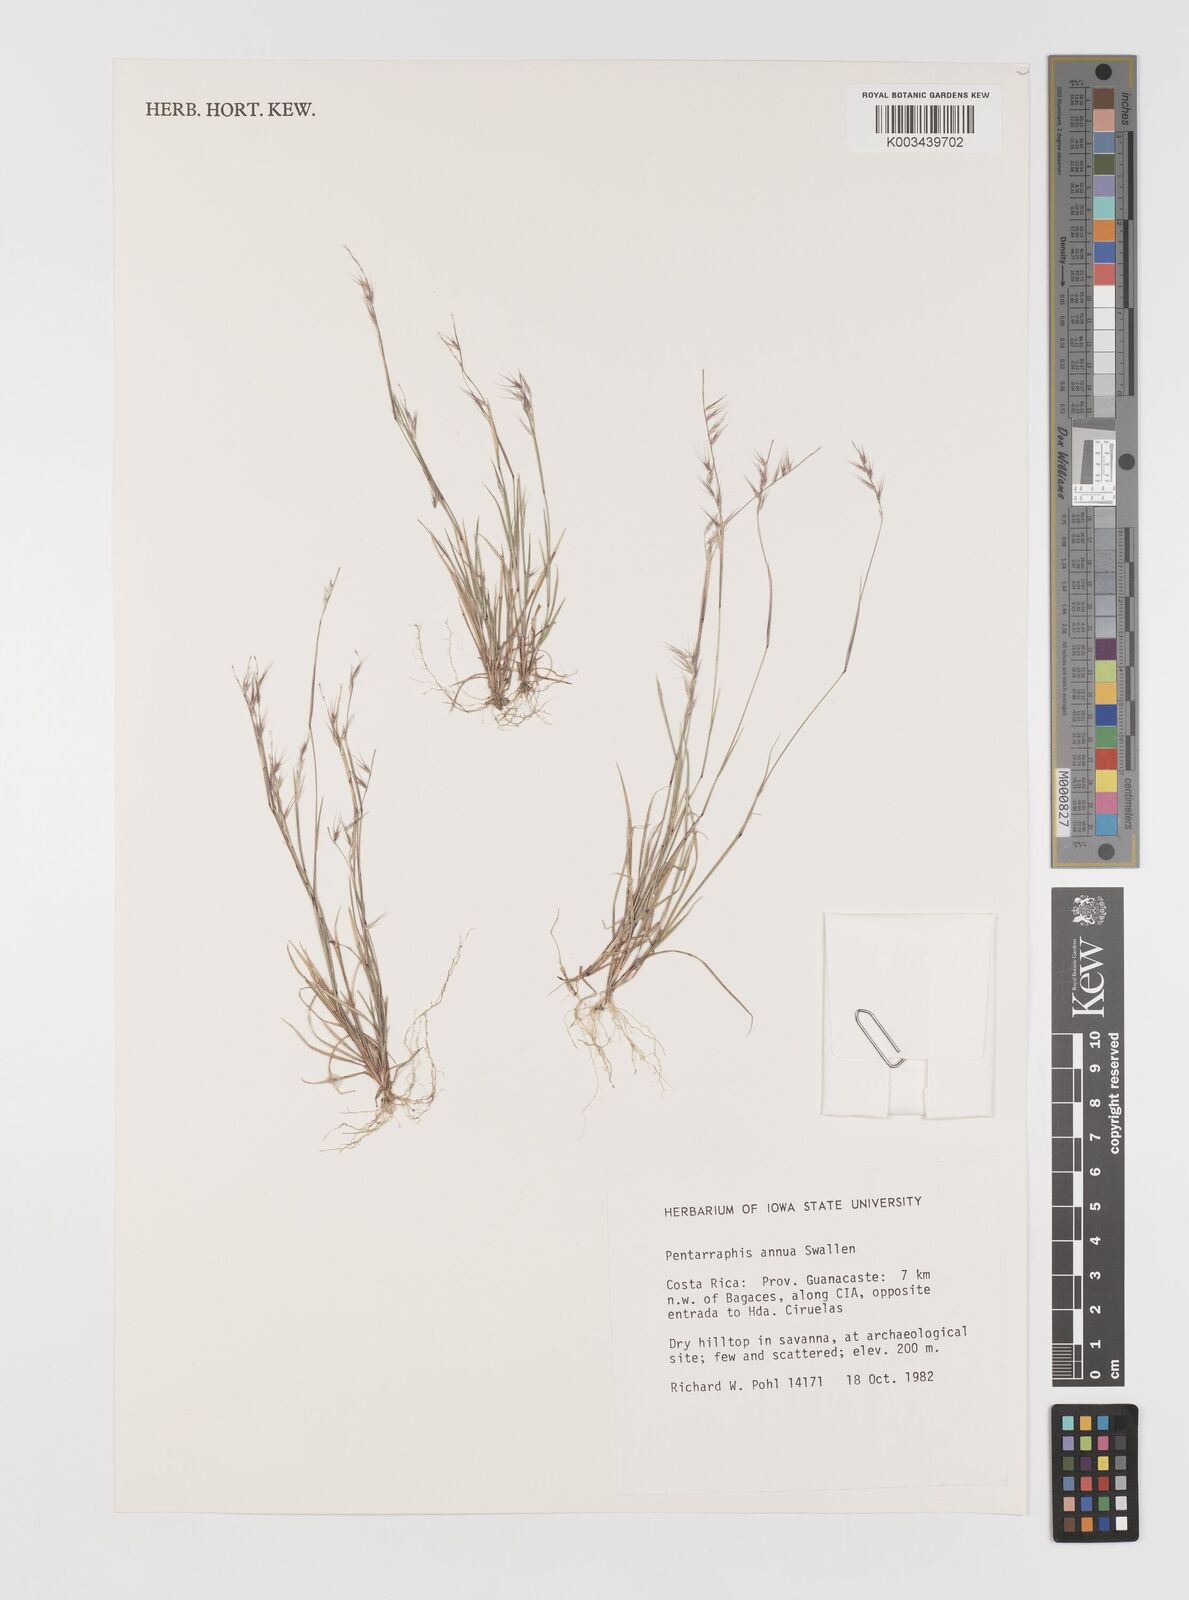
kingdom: Plantae
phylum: Tracheophyta
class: Liliopsida
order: Poales
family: Poaceae
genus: Bouteloua
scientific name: Bouteloua swallenii
